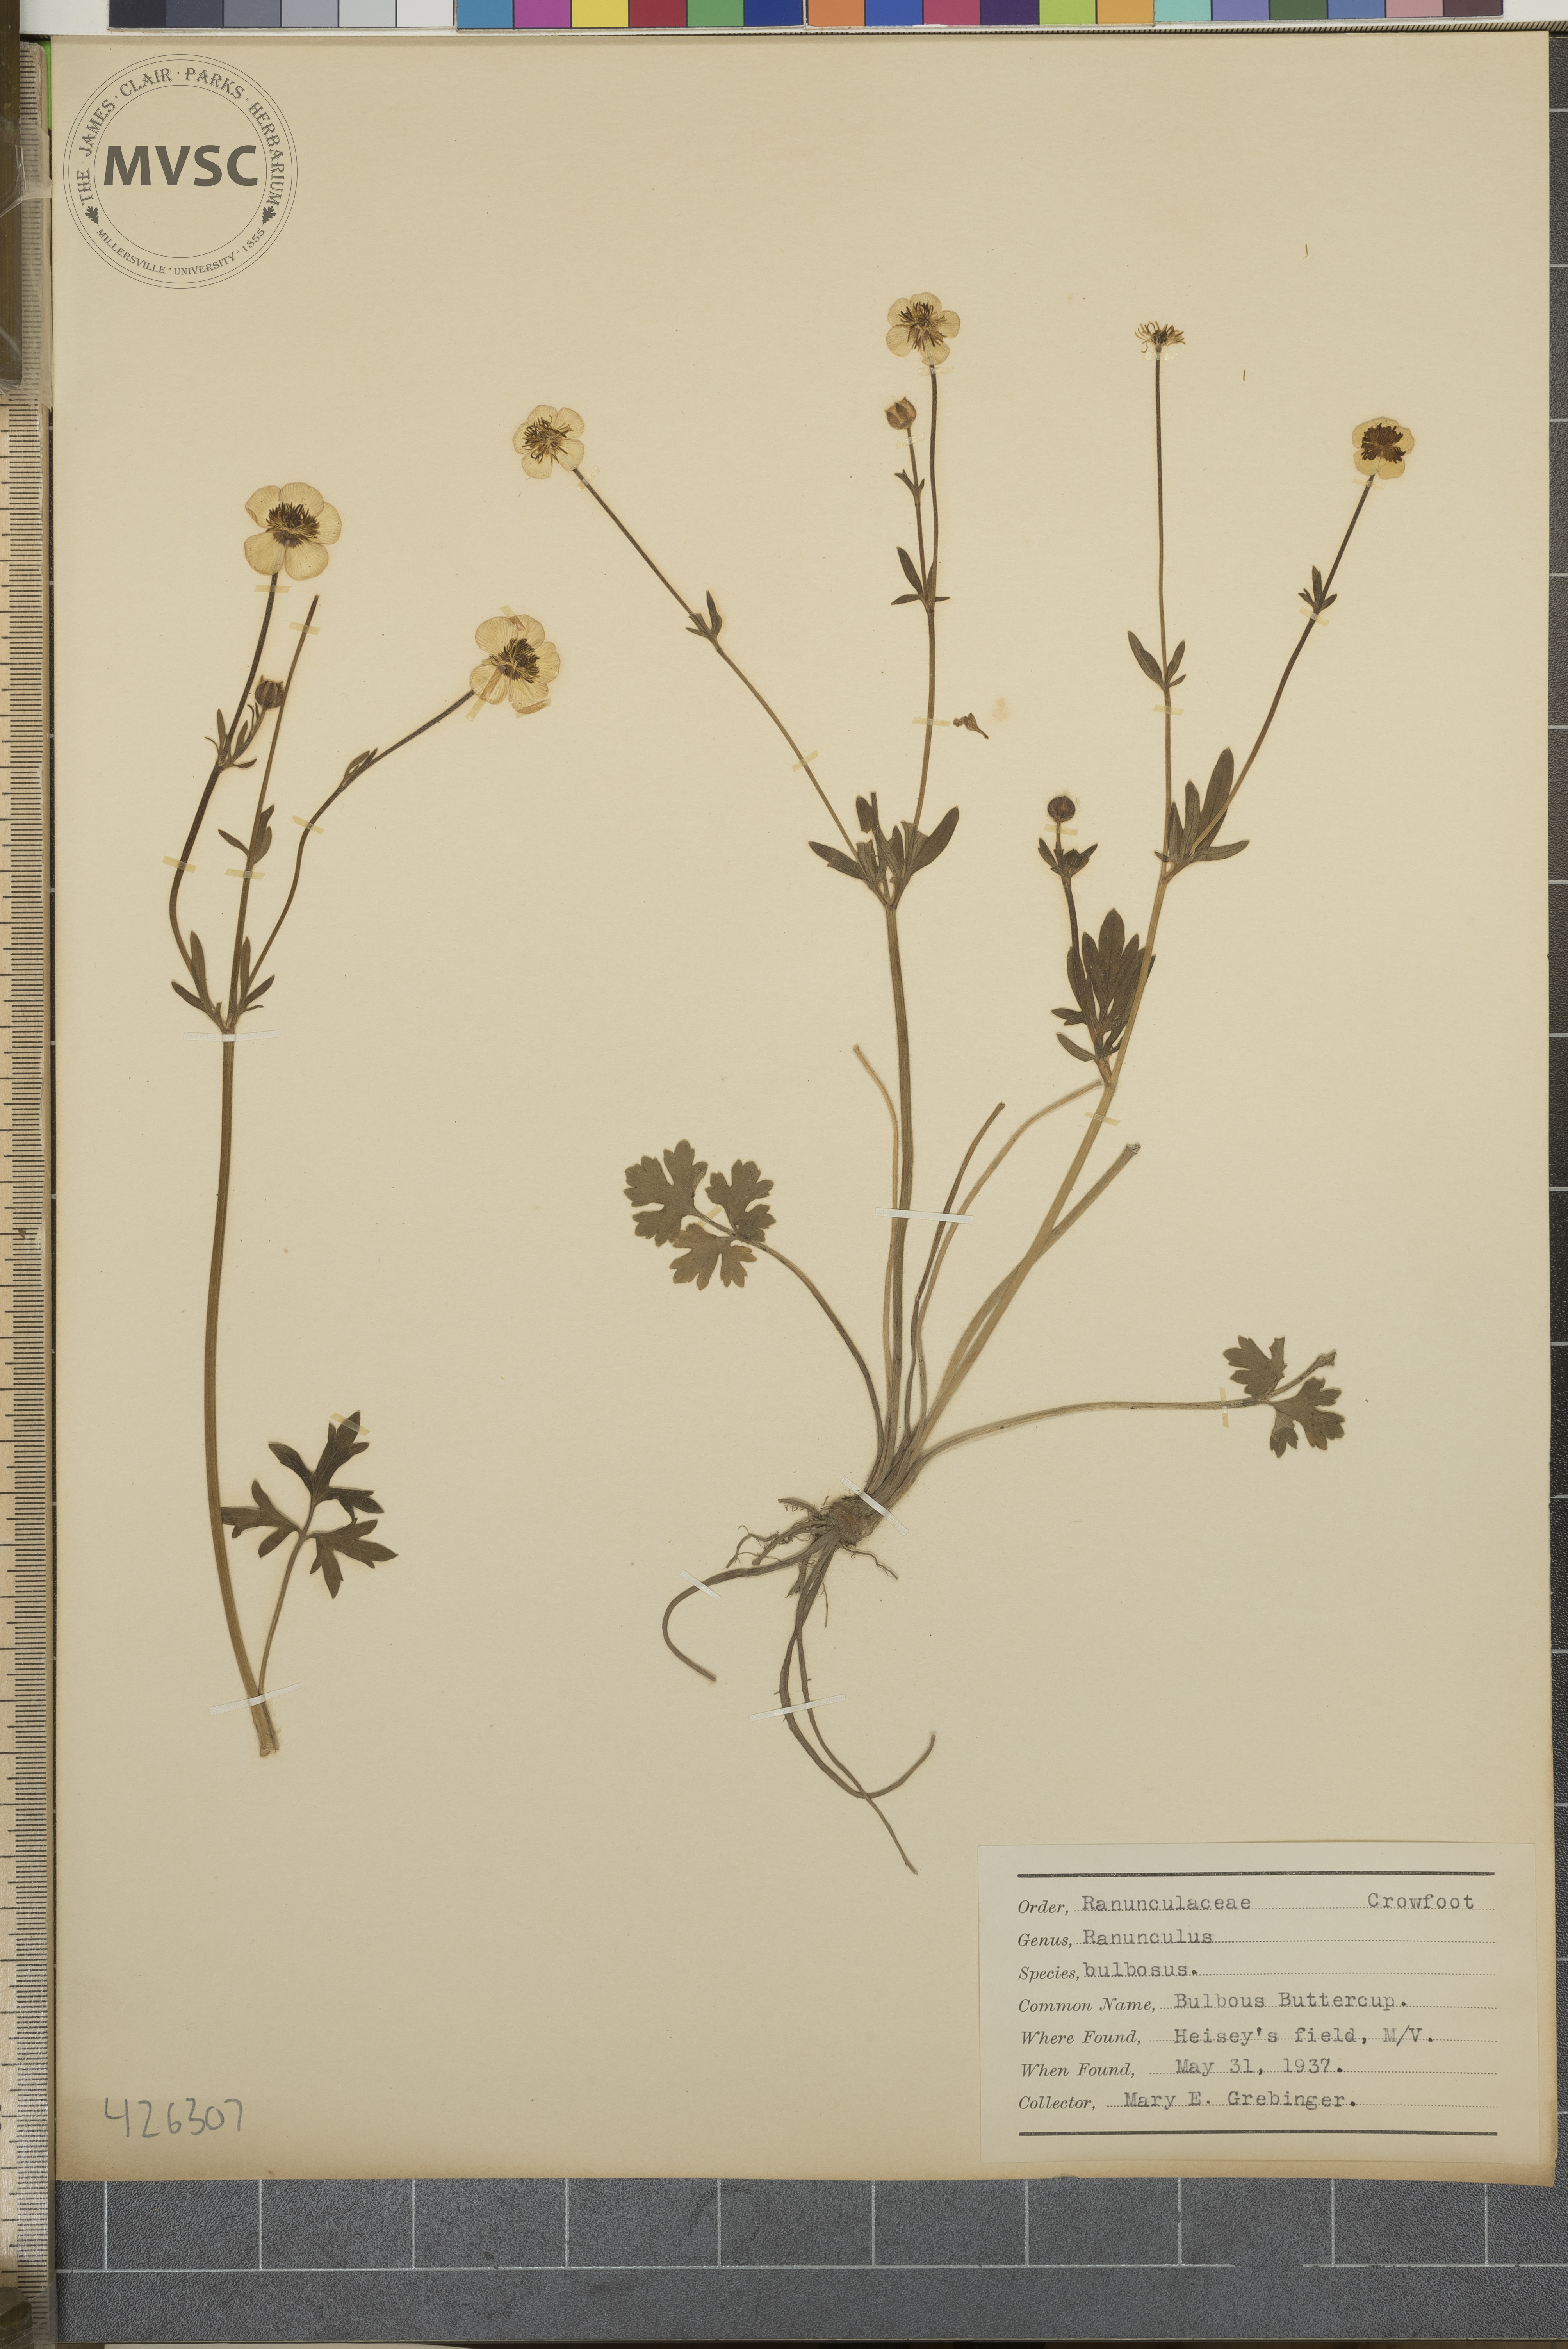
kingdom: Plantae
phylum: Tracheophyta
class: Magnoliopsida
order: Ranunculales
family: Ranunculaceae
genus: Ranunculus
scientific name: Ranunculus bulbosus
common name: Bulbous Buttercup
